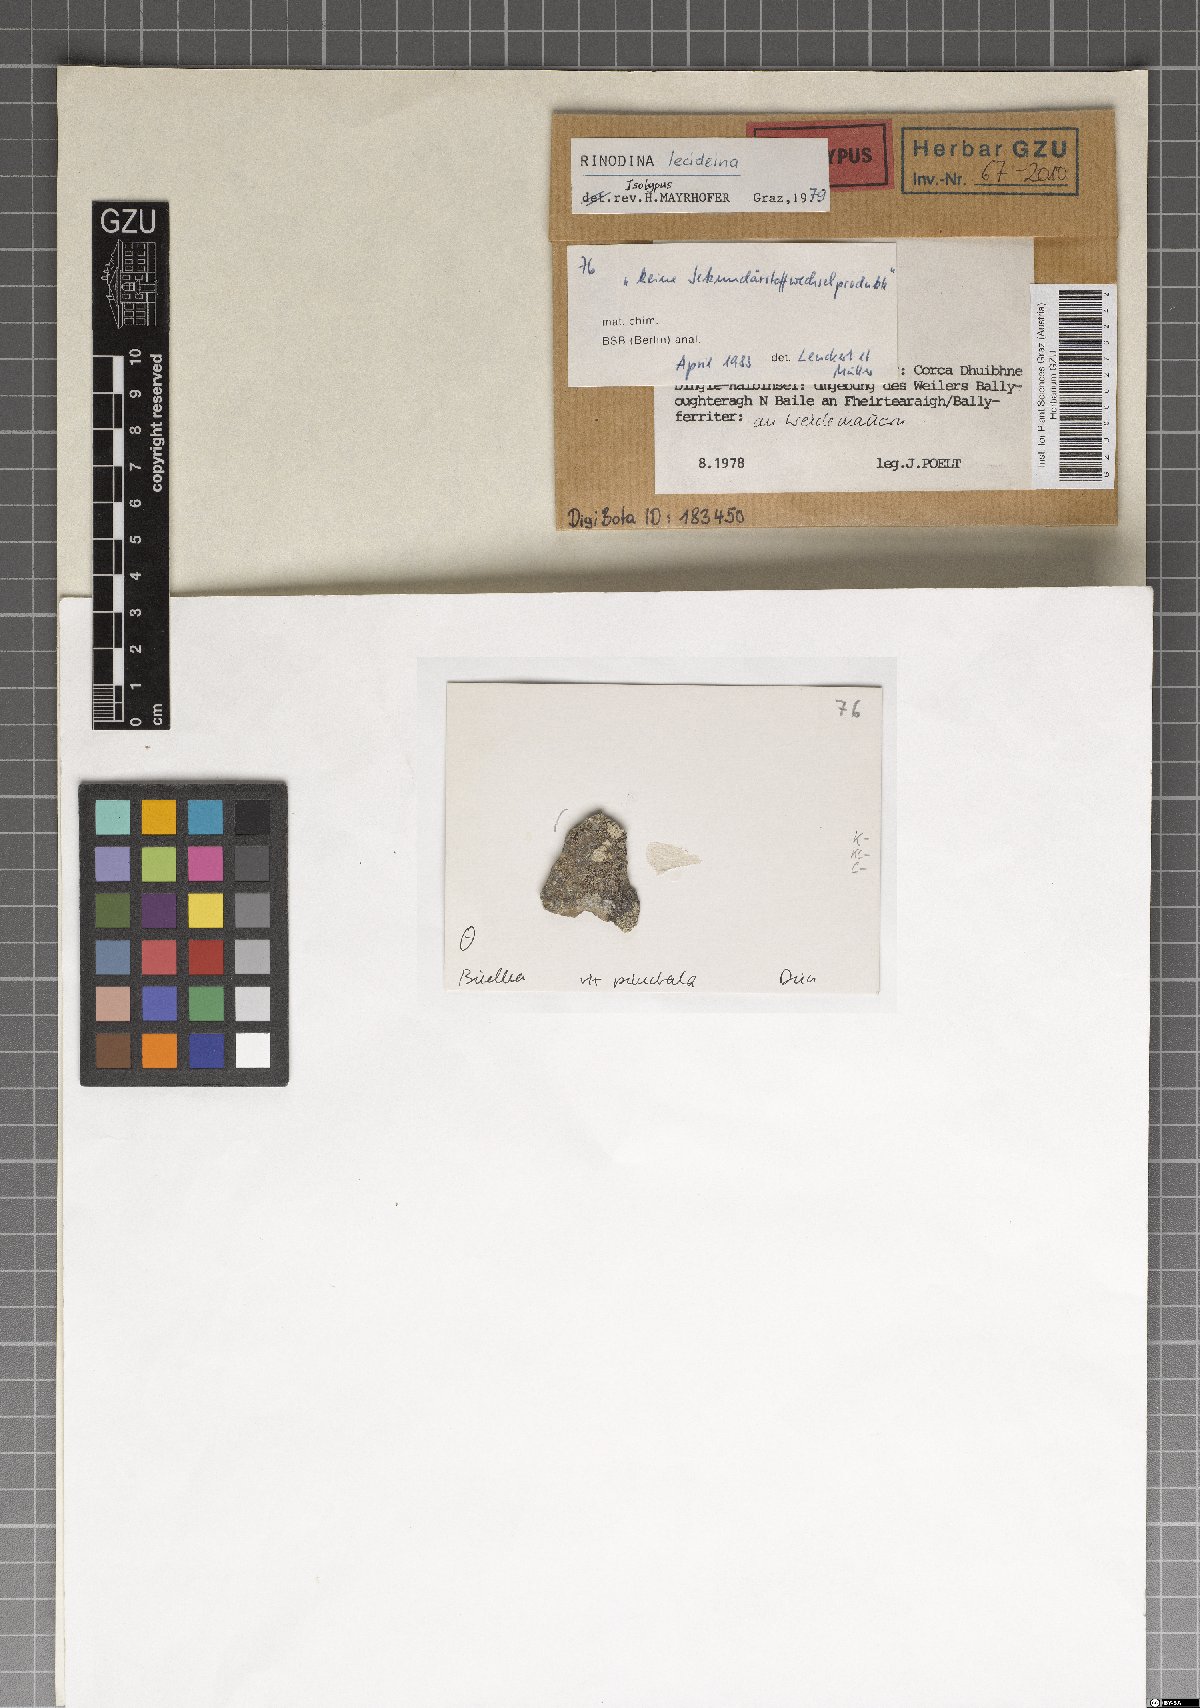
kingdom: Fungi
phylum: Ascomycota
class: Lecanoromycetes
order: Caliciales
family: Caliciaceae
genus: Amandinea
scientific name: Amandinea lecideina
